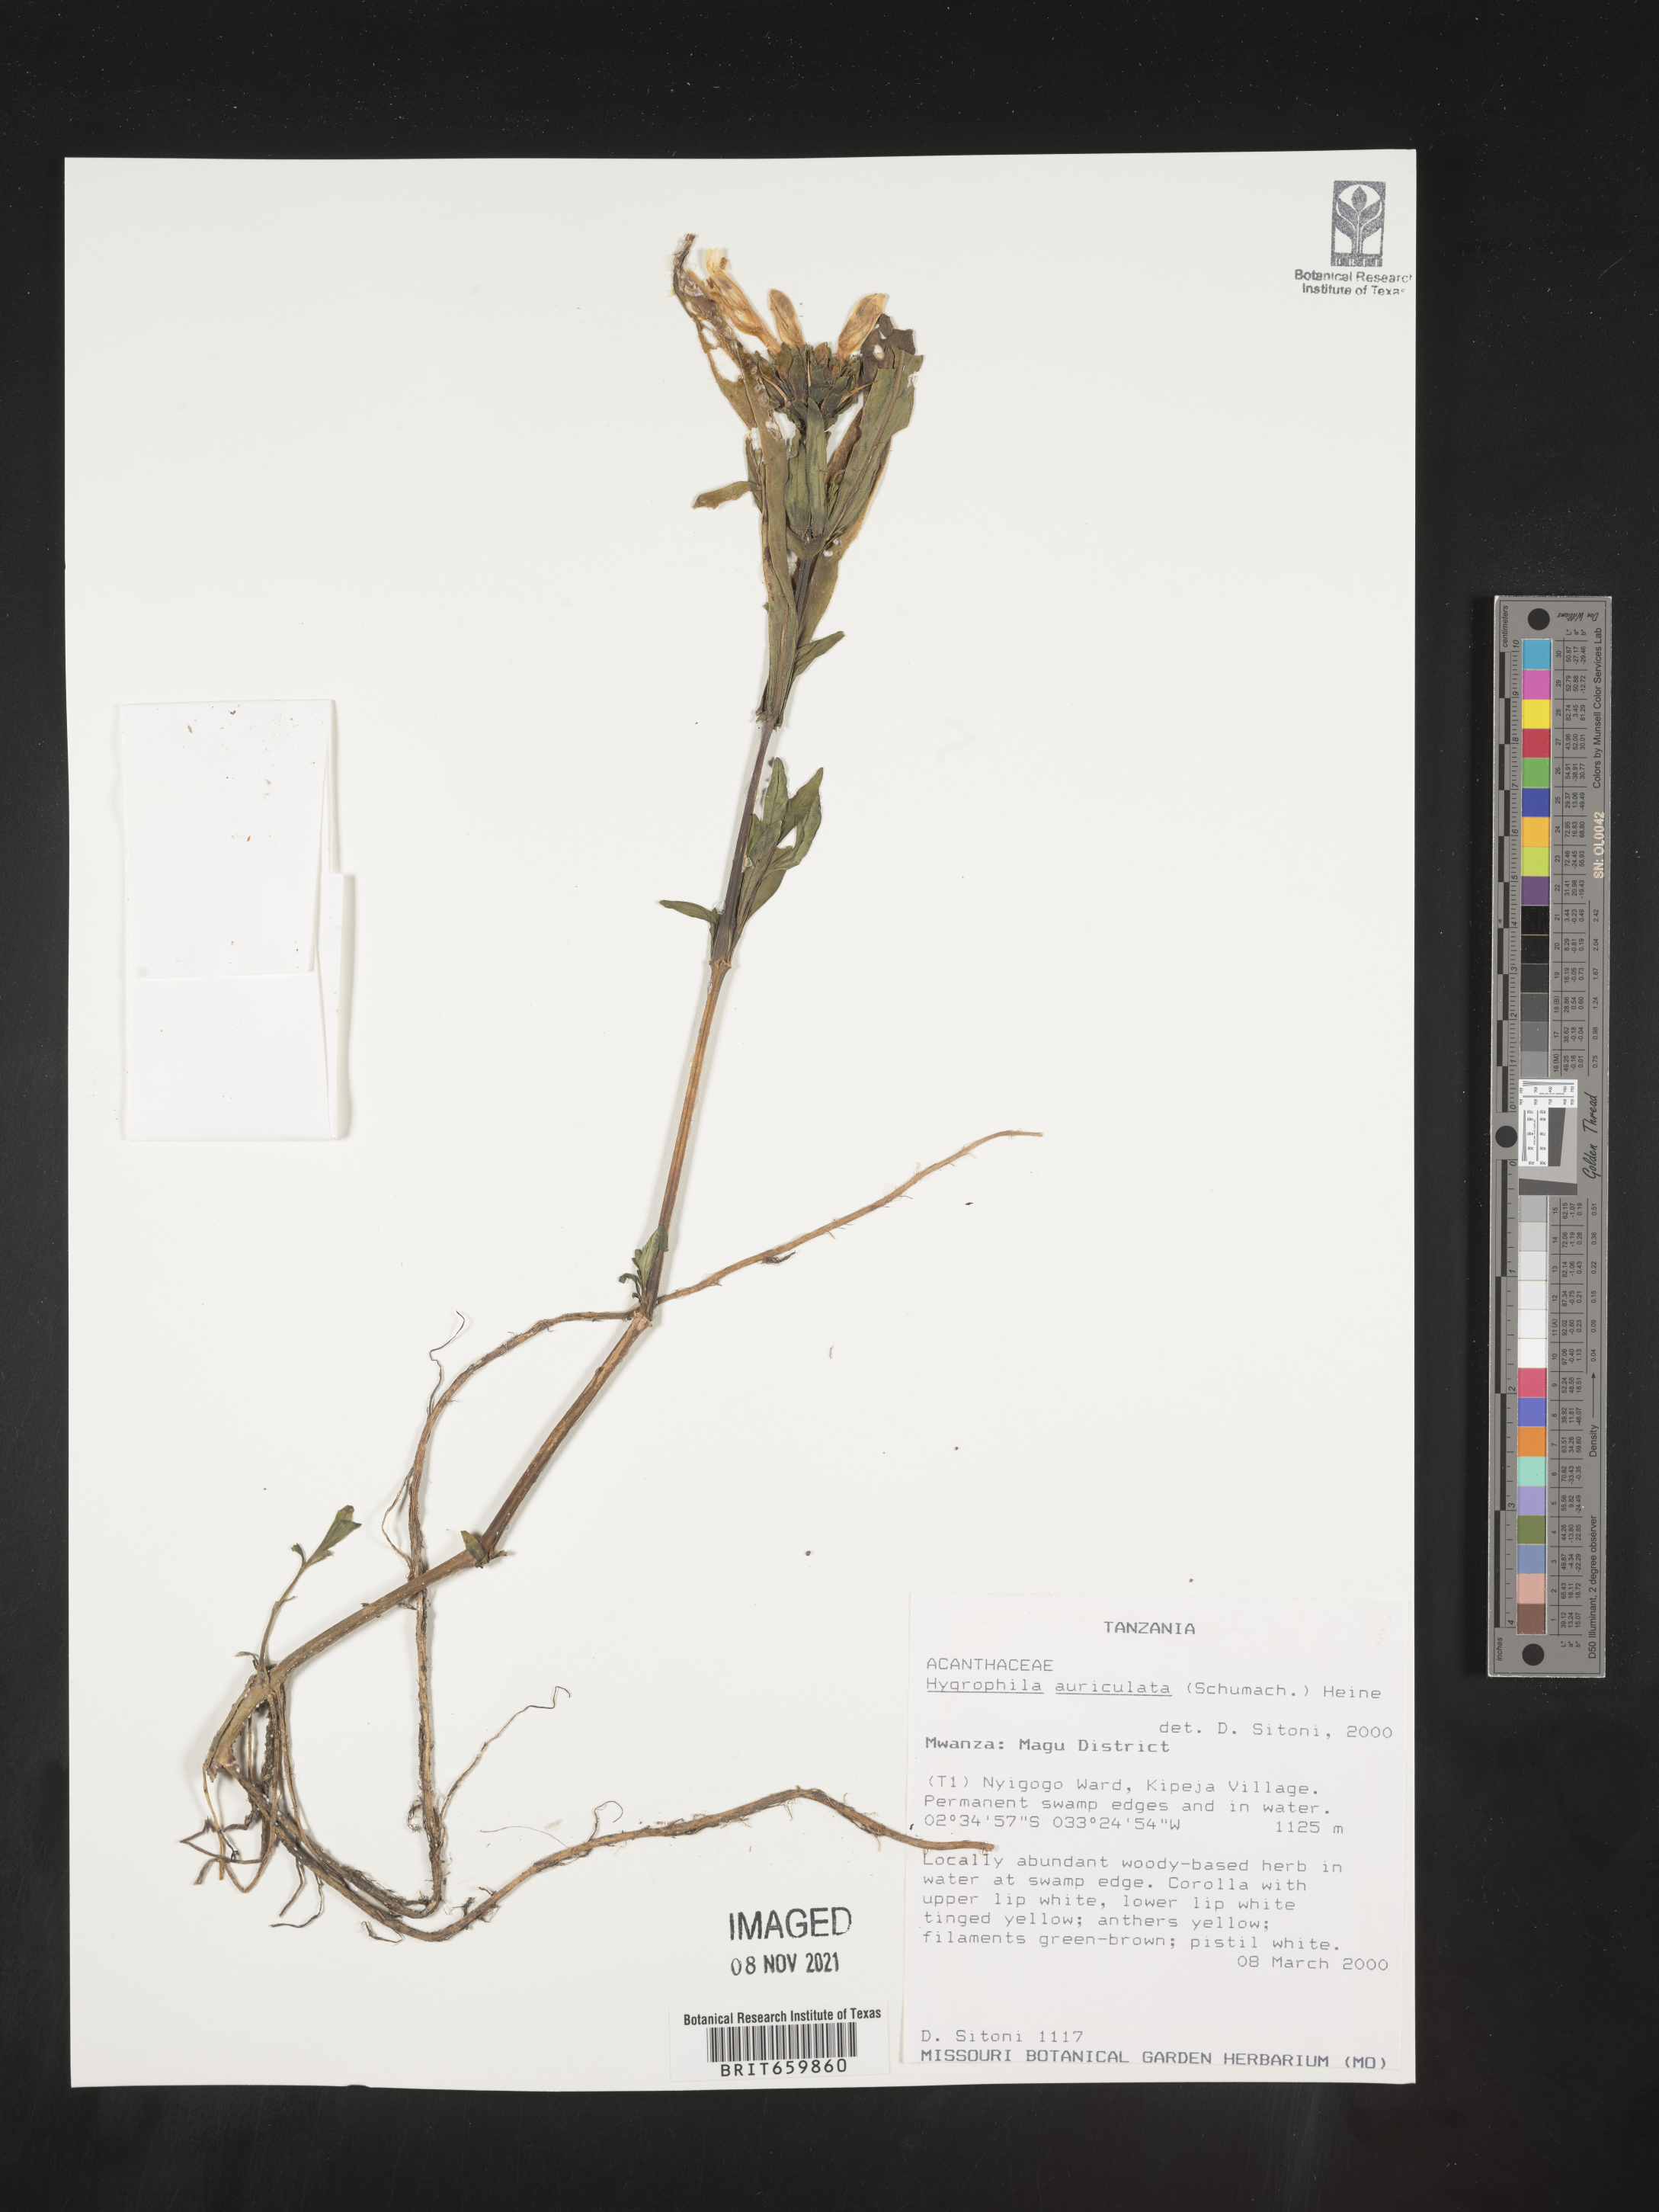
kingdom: Plantae
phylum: Tracheophyta
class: Magnoliopsida
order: Lamiales
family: Acanthaceae
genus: Hygrophila
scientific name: Hygrophila
